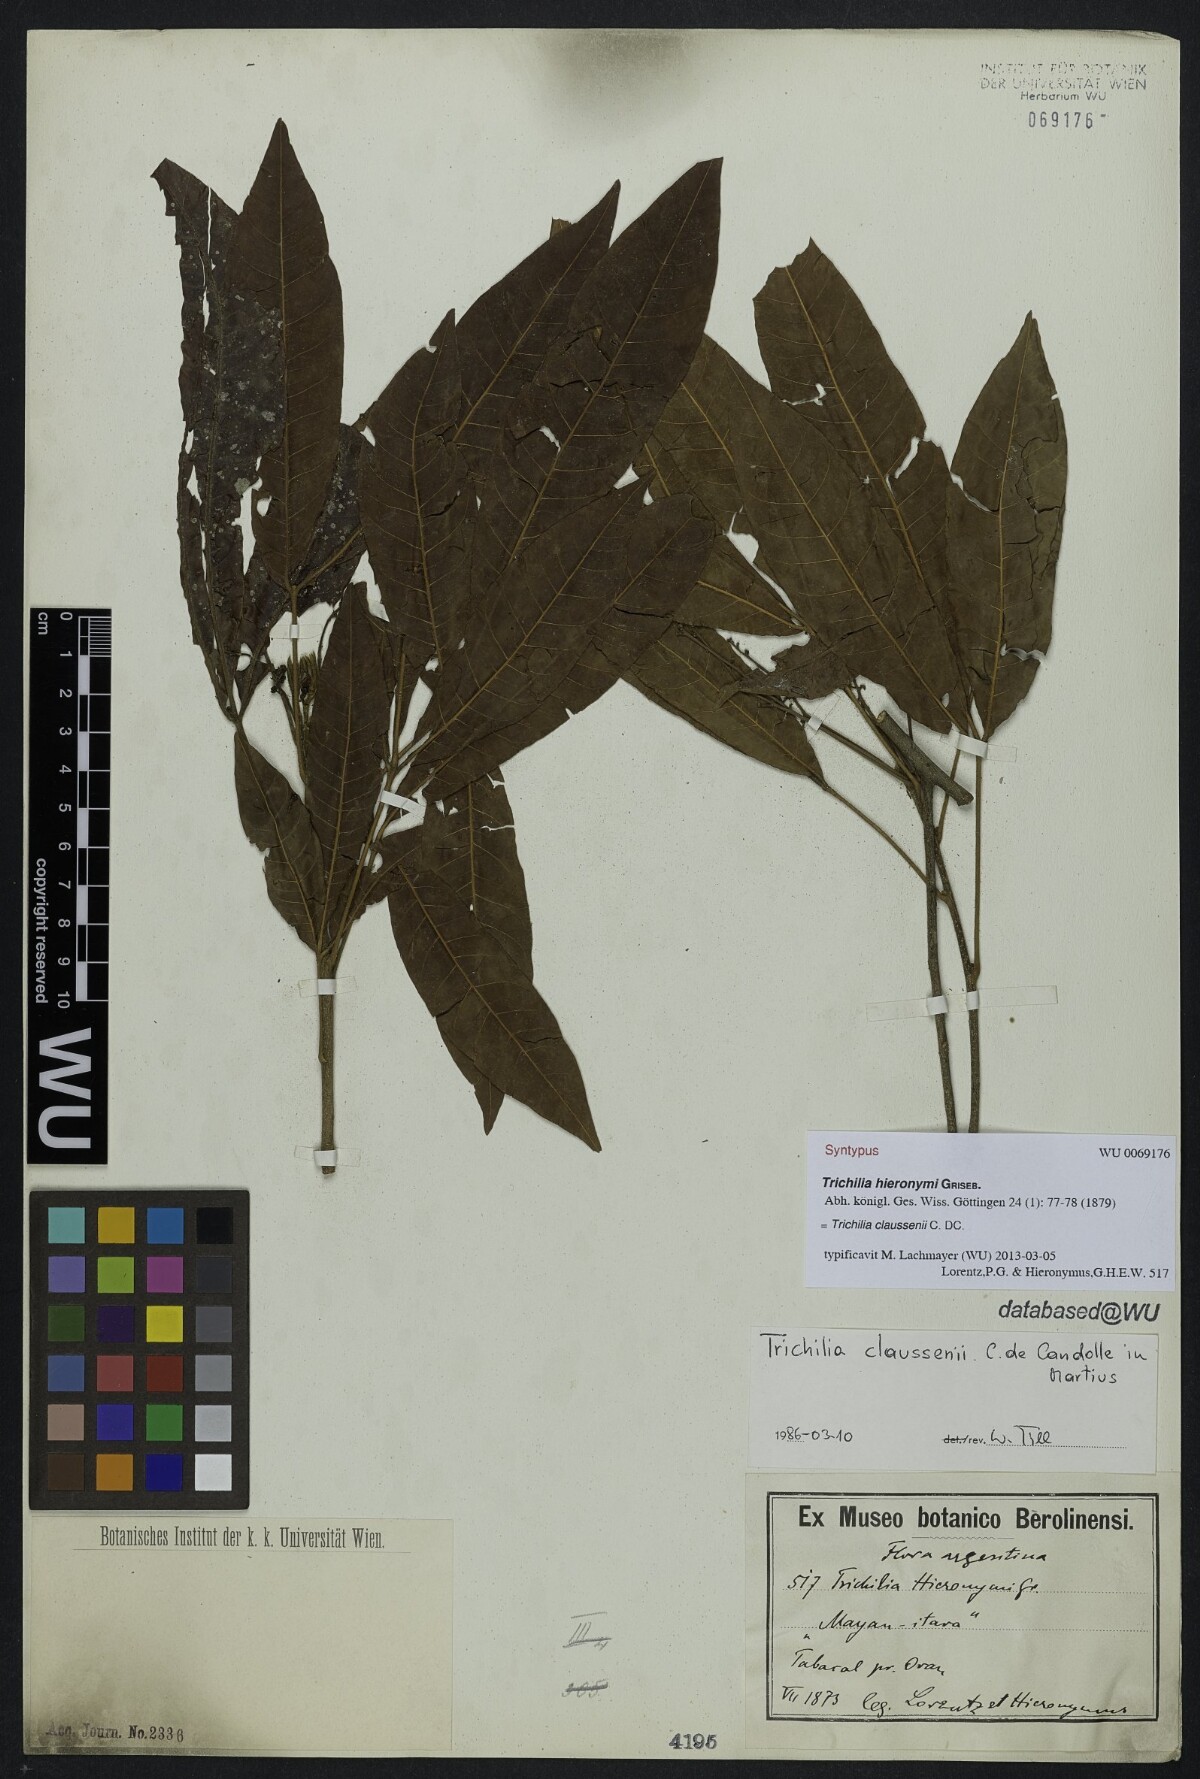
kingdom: Plantae
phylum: Tracheophyta
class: Magnoliopsida
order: Sapindales
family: Meliaceae
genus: Trichilia
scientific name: Trichilia claussenii
